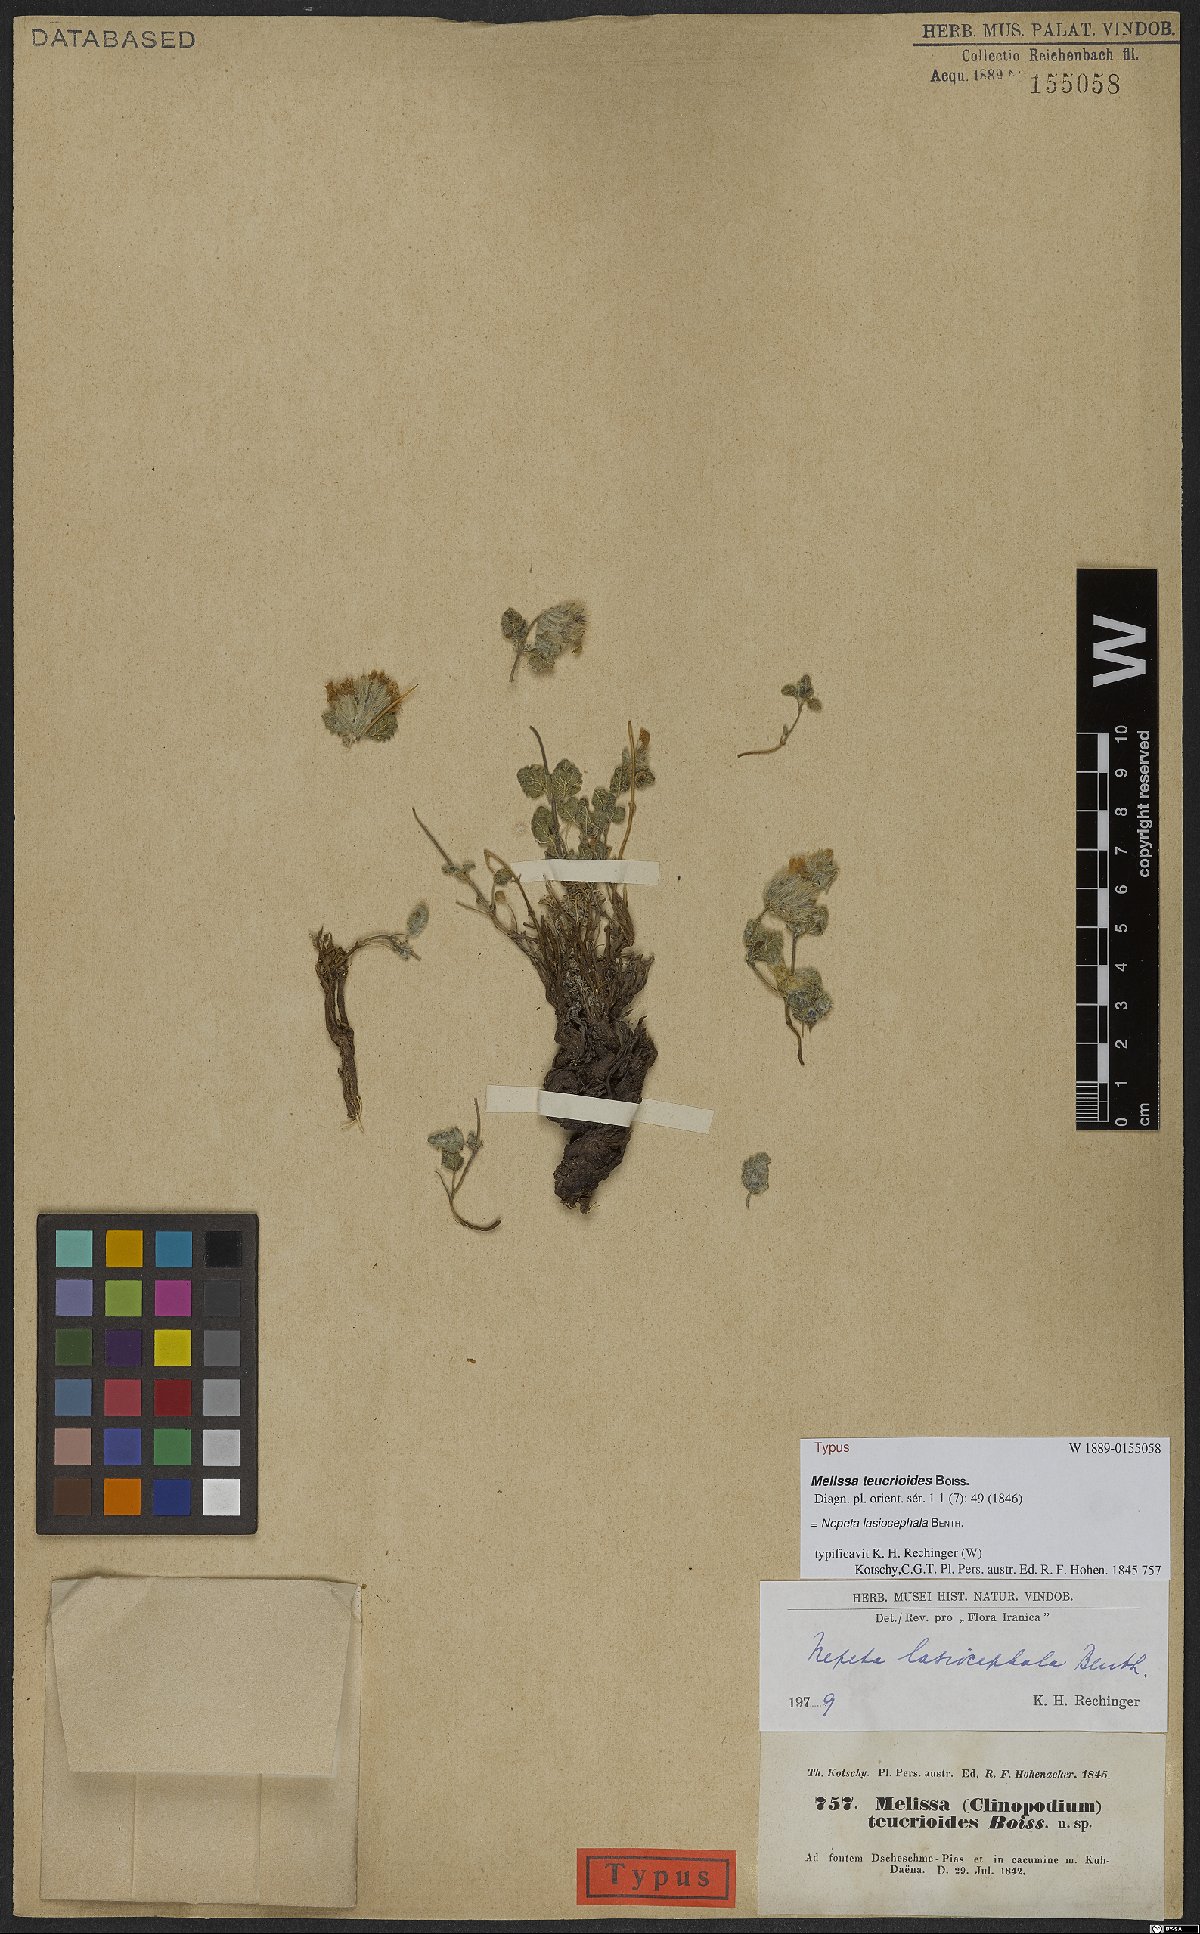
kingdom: Plantae
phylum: Tracheophyta
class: Magnoliopsida
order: Lamiales
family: Lamiaceae
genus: Nepeta
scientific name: Nepeta lasiocephala
